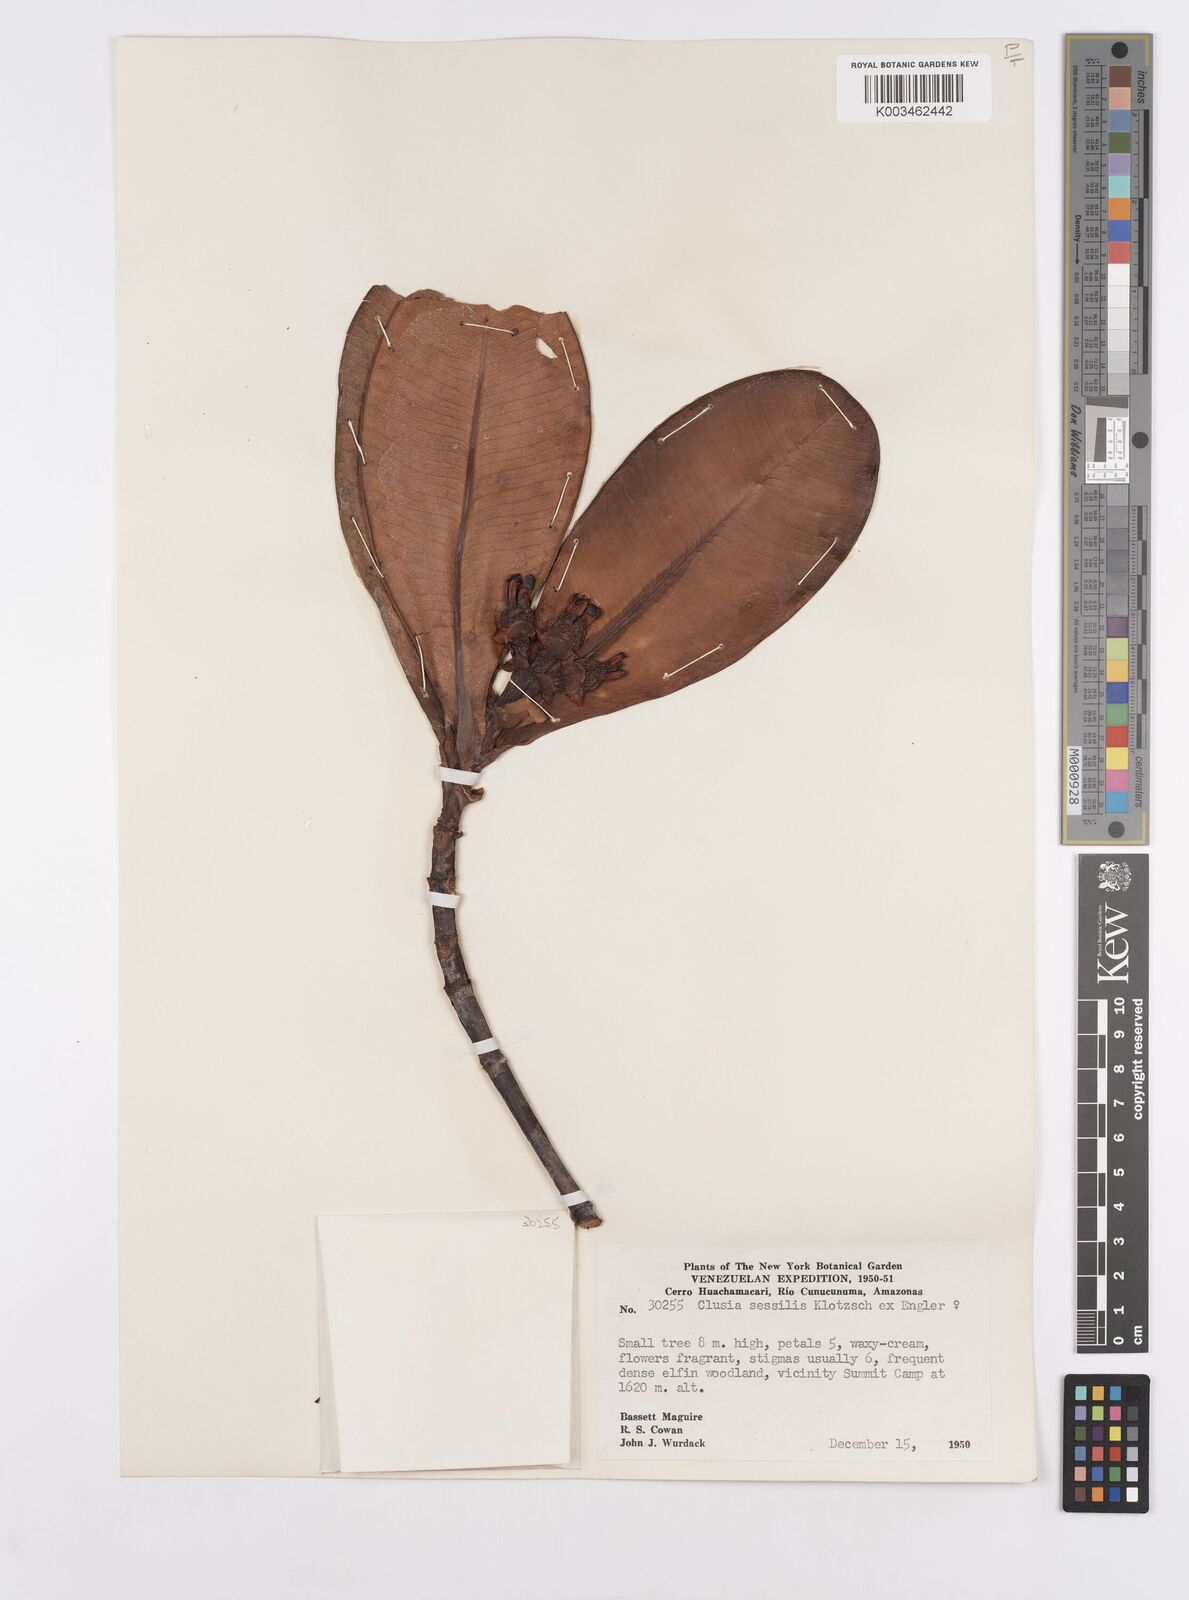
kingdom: Plantae
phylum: Tracheophyta
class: Magnoliopsida
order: Malpighiales
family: Clusiaceae
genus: Garcinia
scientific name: Garcinia sessilis
